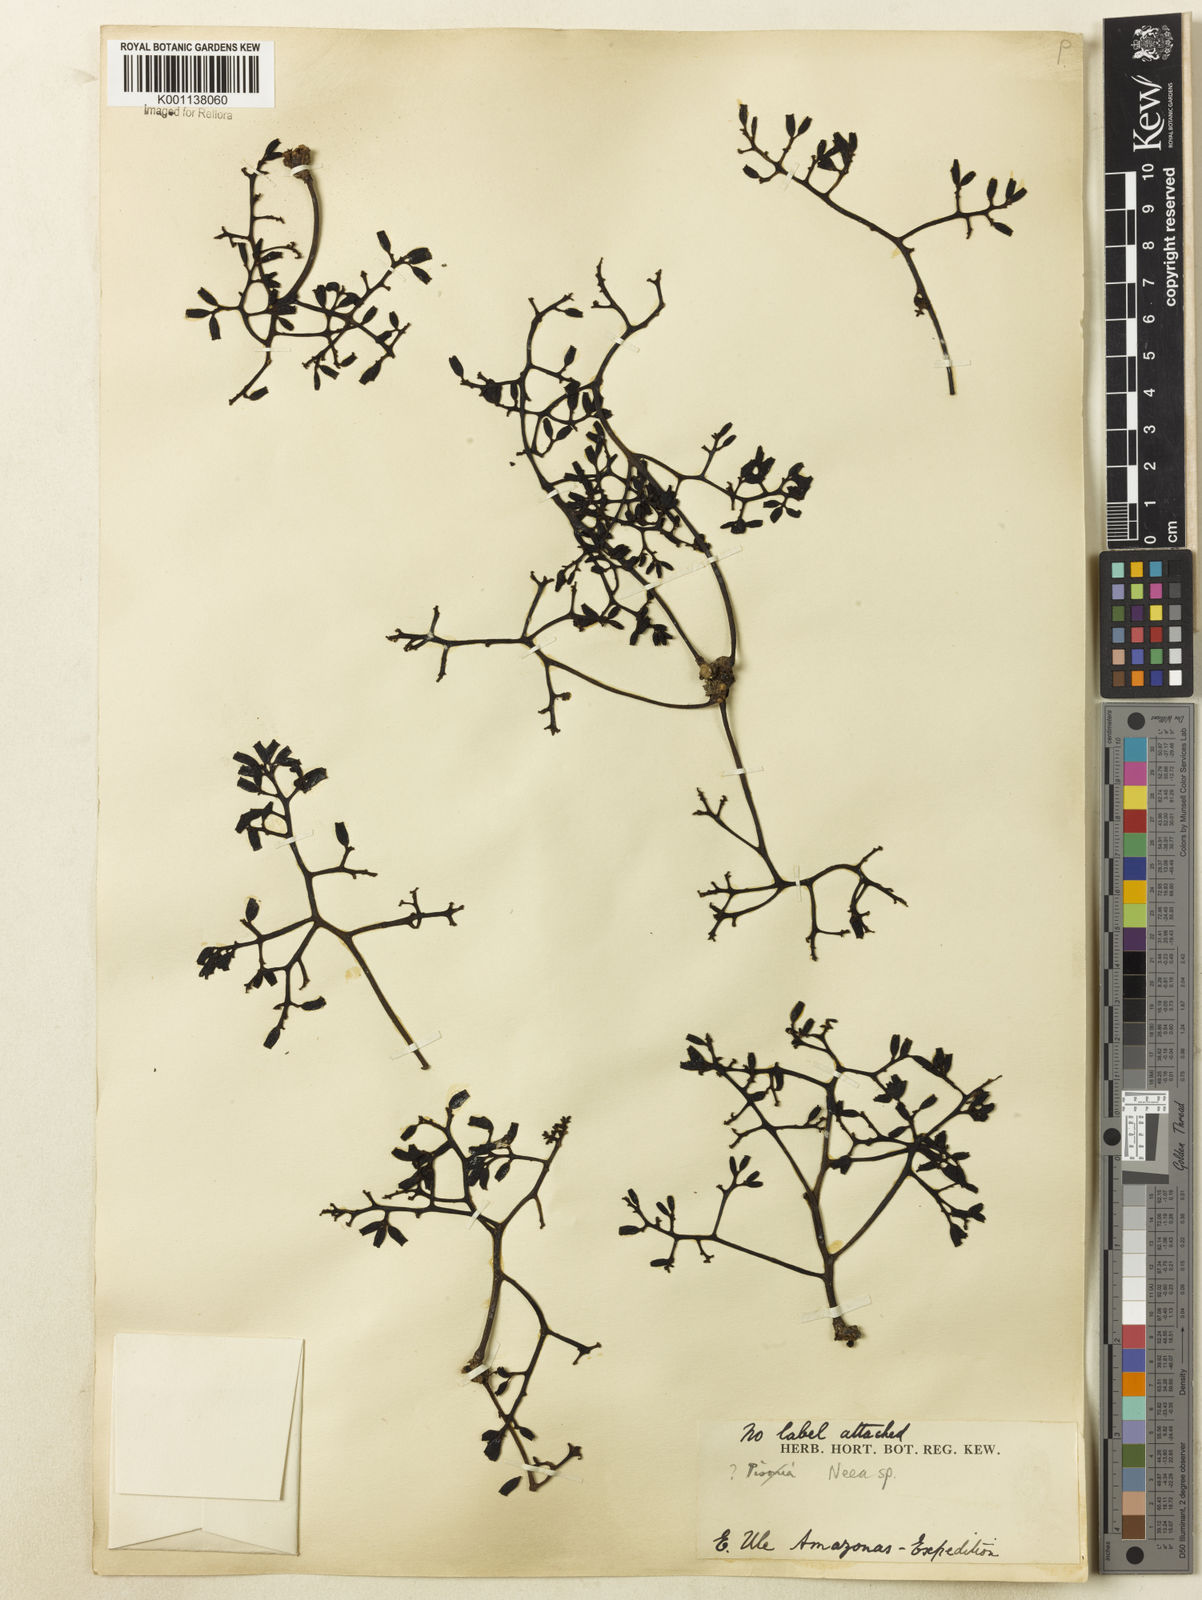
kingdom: Plantae
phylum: Tracheophyta
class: Magnoliopsida
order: Caryophyllales
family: Nyctaginaceae
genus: Neea
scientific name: Neea
